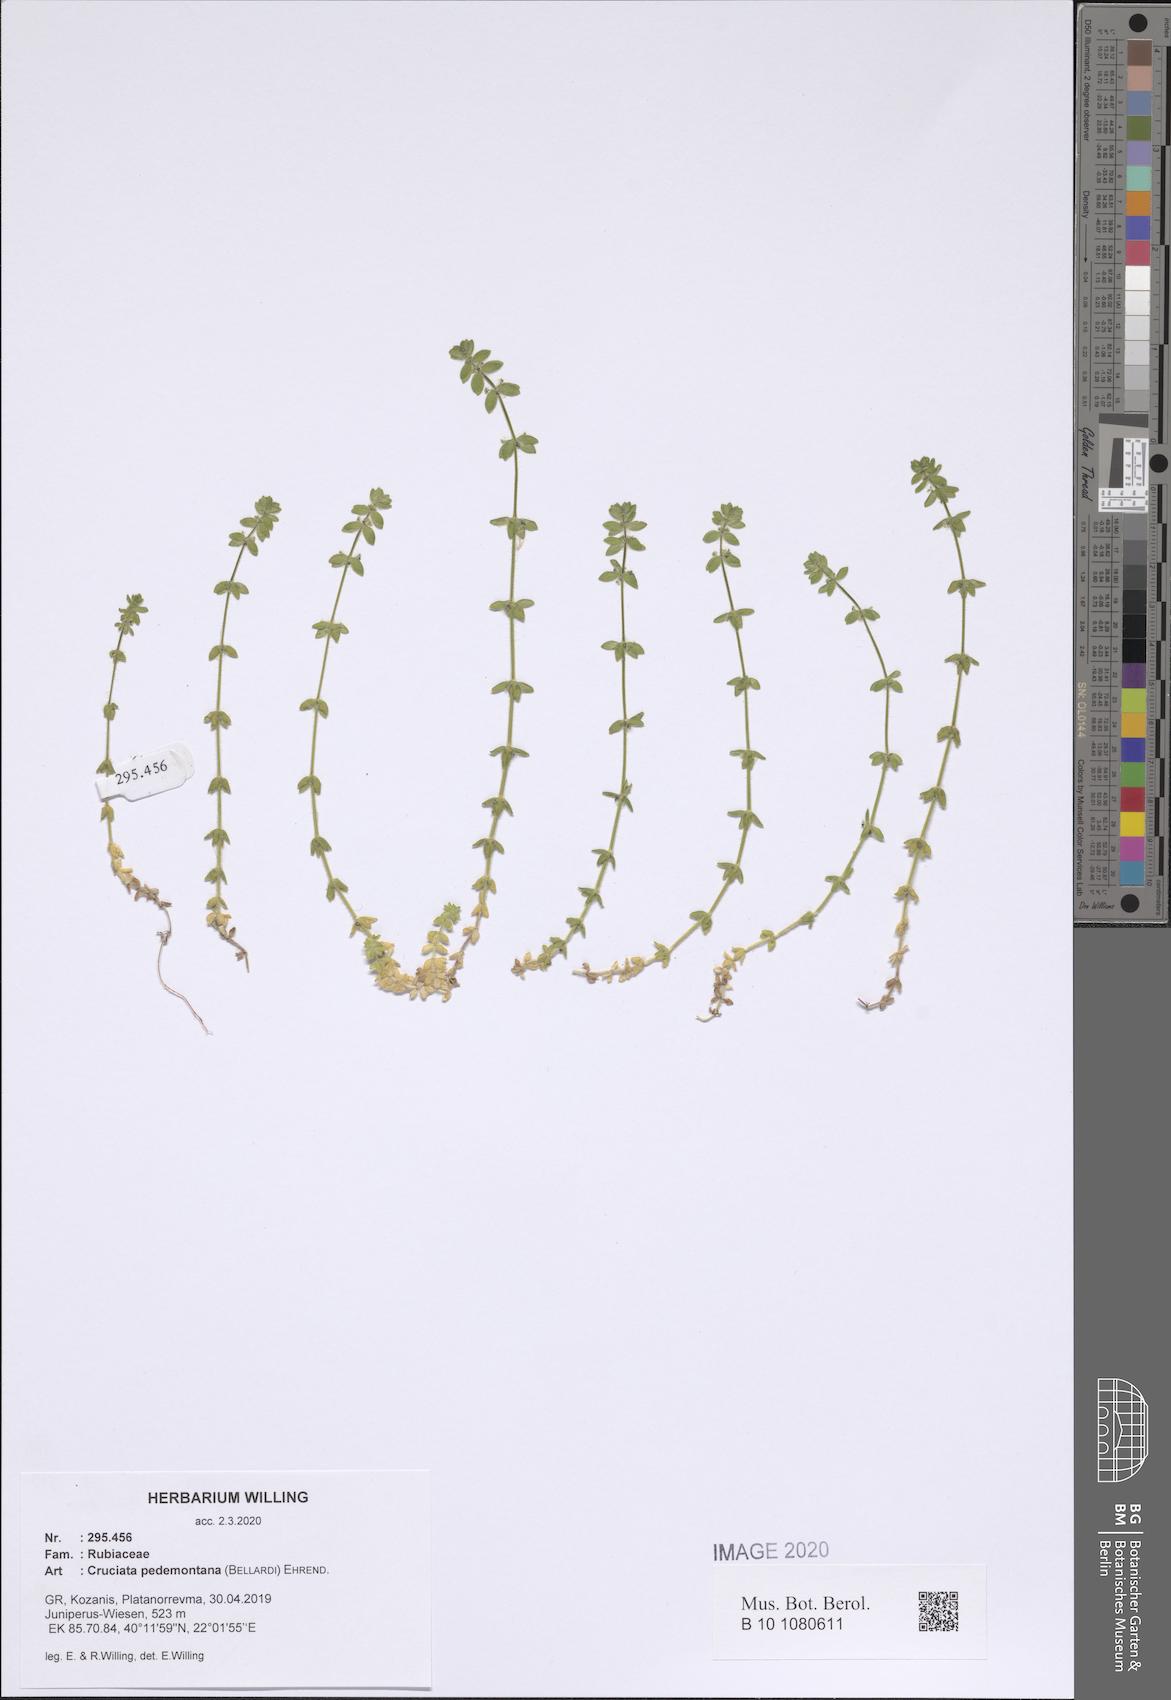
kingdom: Plantae
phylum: Tracheophyta
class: Magnoliopsida
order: Gentianales
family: Rubiaceae
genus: Cruciata
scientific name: Cruciata pedemontana
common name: Piedmont bedstraw
